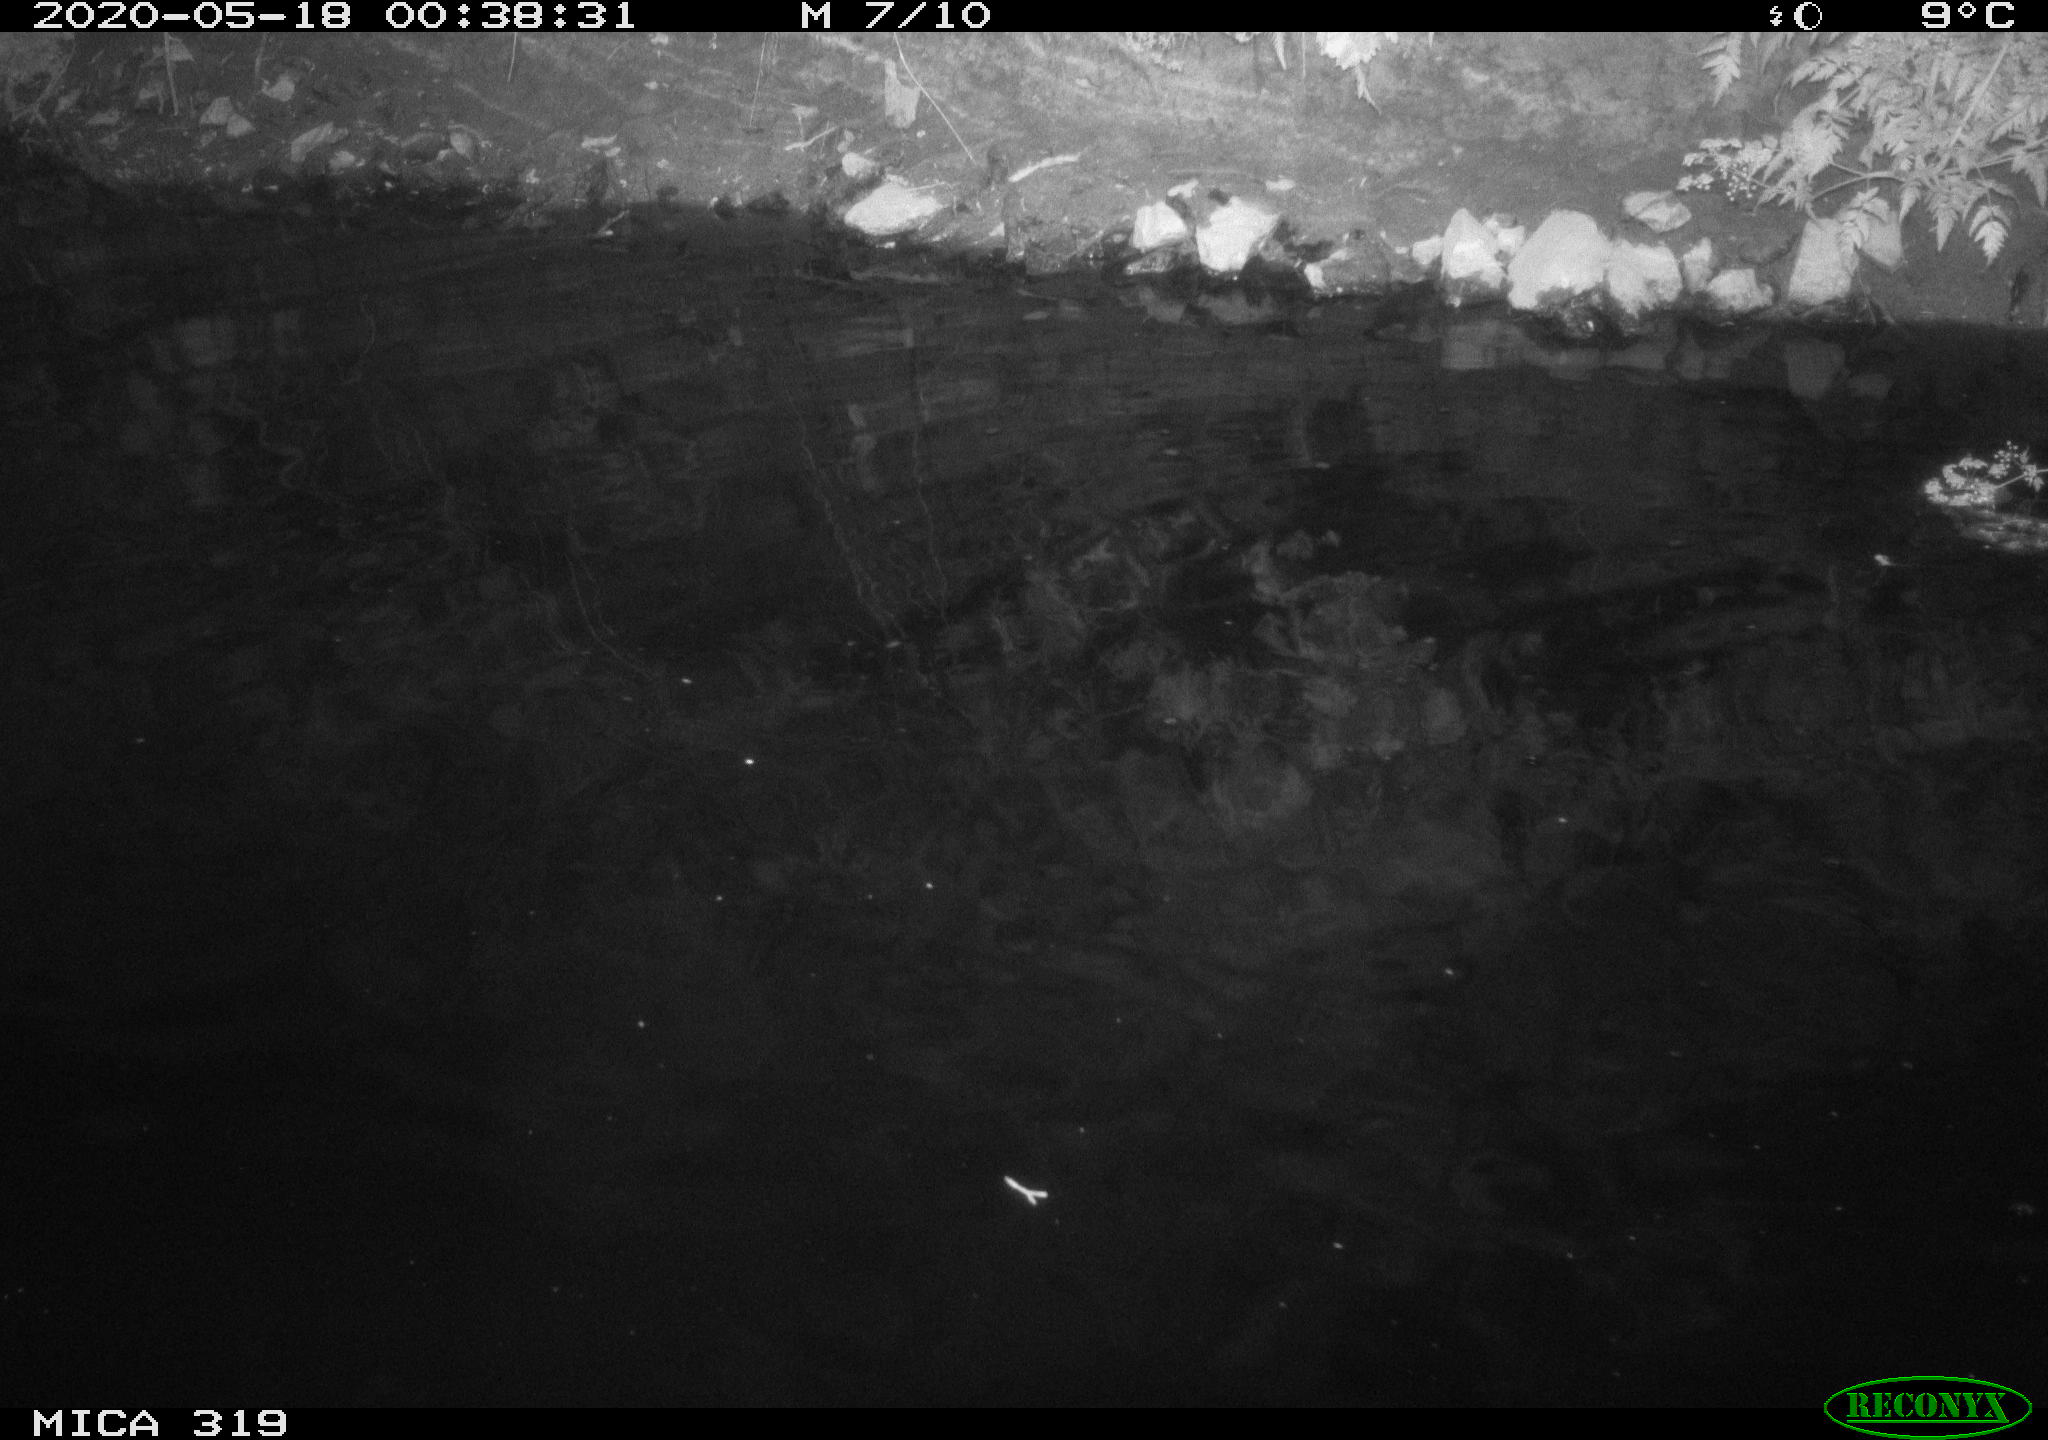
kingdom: Animalia
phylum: Chordata
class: Aves
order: Anseriformes
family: Anatidae
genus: Anas
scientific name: Anas platyrhynchos
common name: Mallard
